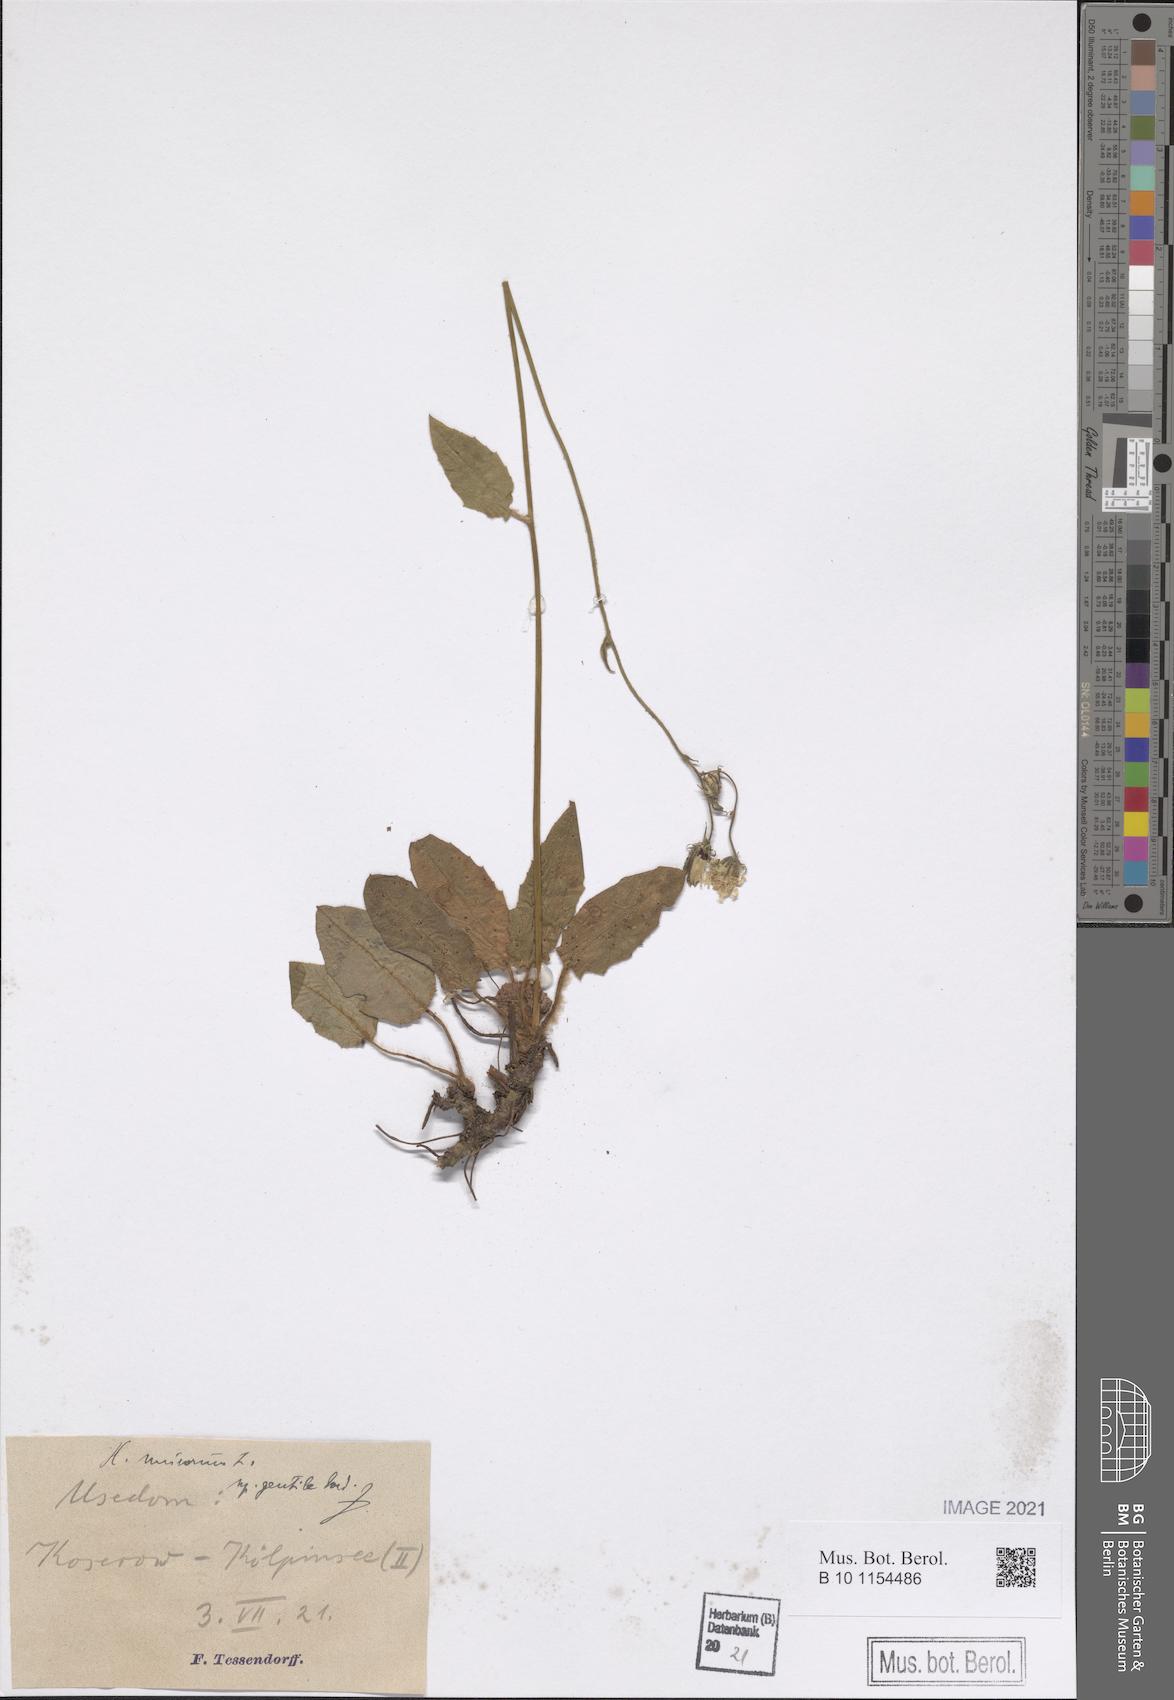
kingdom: Plantae
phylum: Tracheophyta
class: Magnoliopsida
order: Asterales
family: Asteraceae
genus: Hieracium
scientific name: Hieracium murorum
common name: Wall hawkweed
